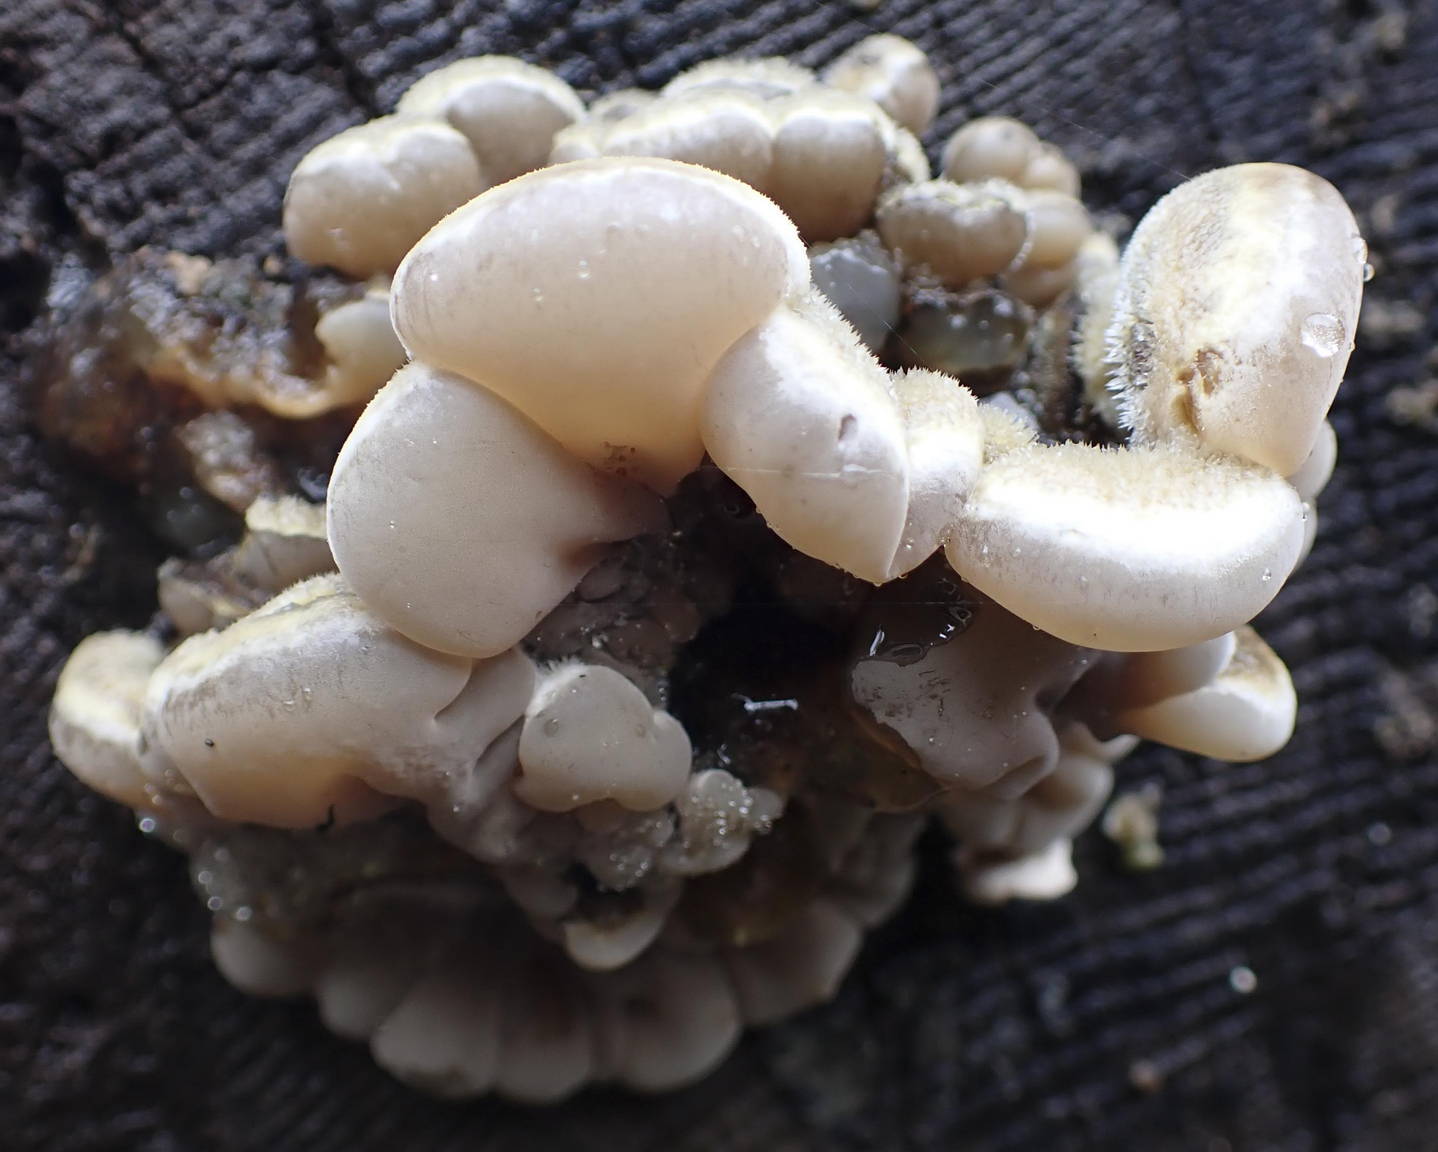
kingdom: Fungi
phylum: Basidiomycota
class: Agaricomycetes
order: Auriculariales
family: Auriculariaceae
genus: Auricularia
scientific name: Auricularia mesenterica
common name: håret judasøre
